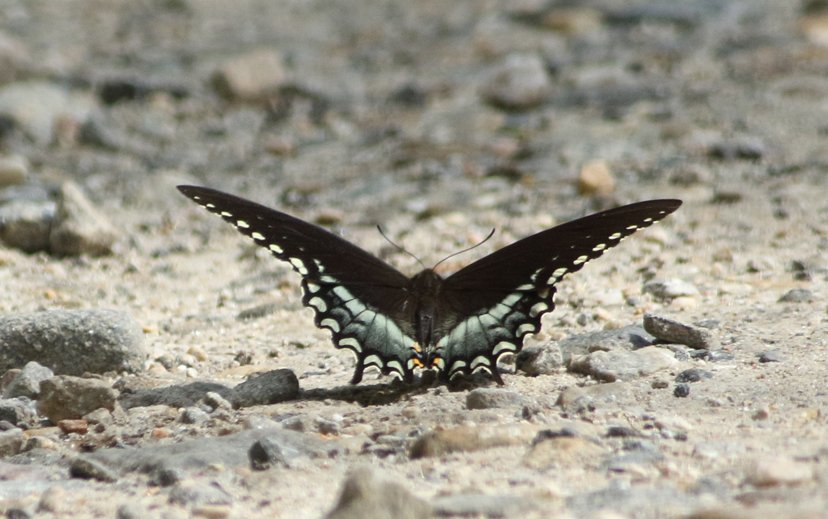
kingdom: Animalia
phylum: Arthropoda
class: Insecta
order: Lepidoptera
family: Papilionidae
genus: Pterourus
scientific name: Pterourus troilus
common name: Spicebush Swallowtail
